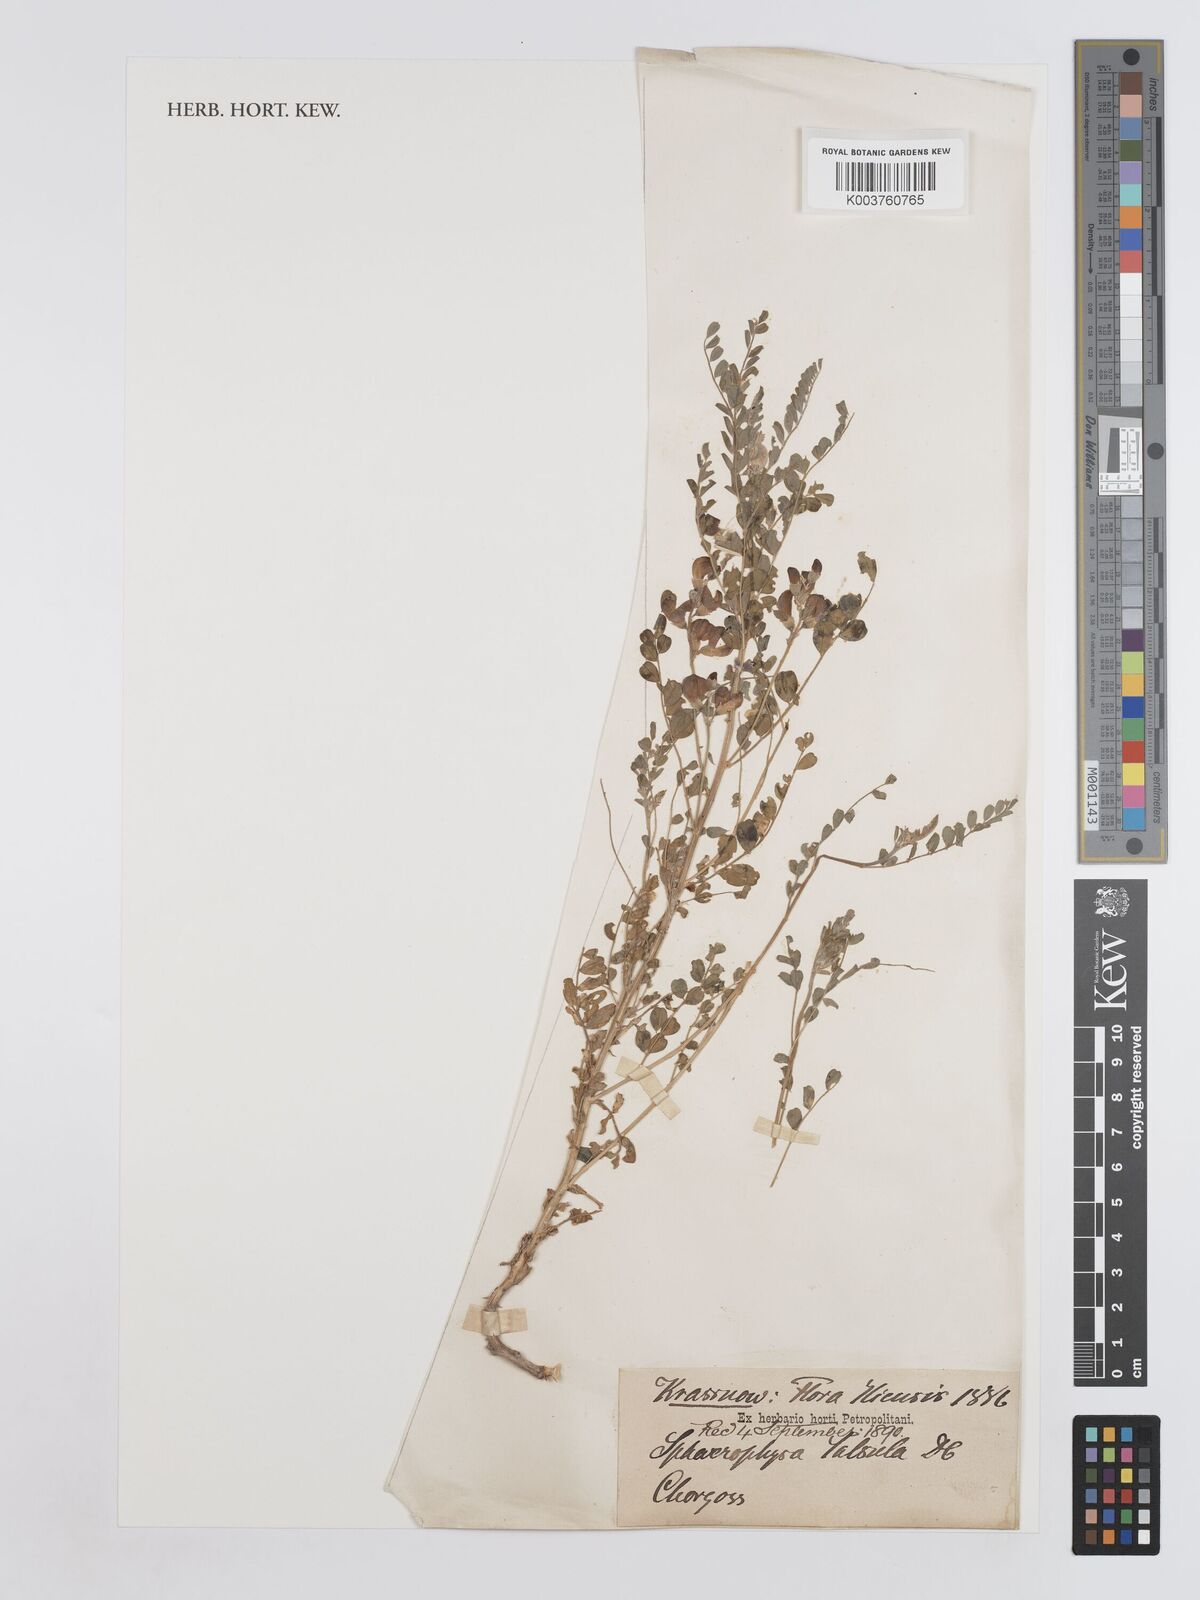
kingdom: Plantae
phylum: Tracheophyta
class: Magnoliopsida
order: Fabales
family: Fabaceae
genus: Sphaerophysa
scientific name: Sphaerophysa salsula
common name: Alkali swainsonpea
